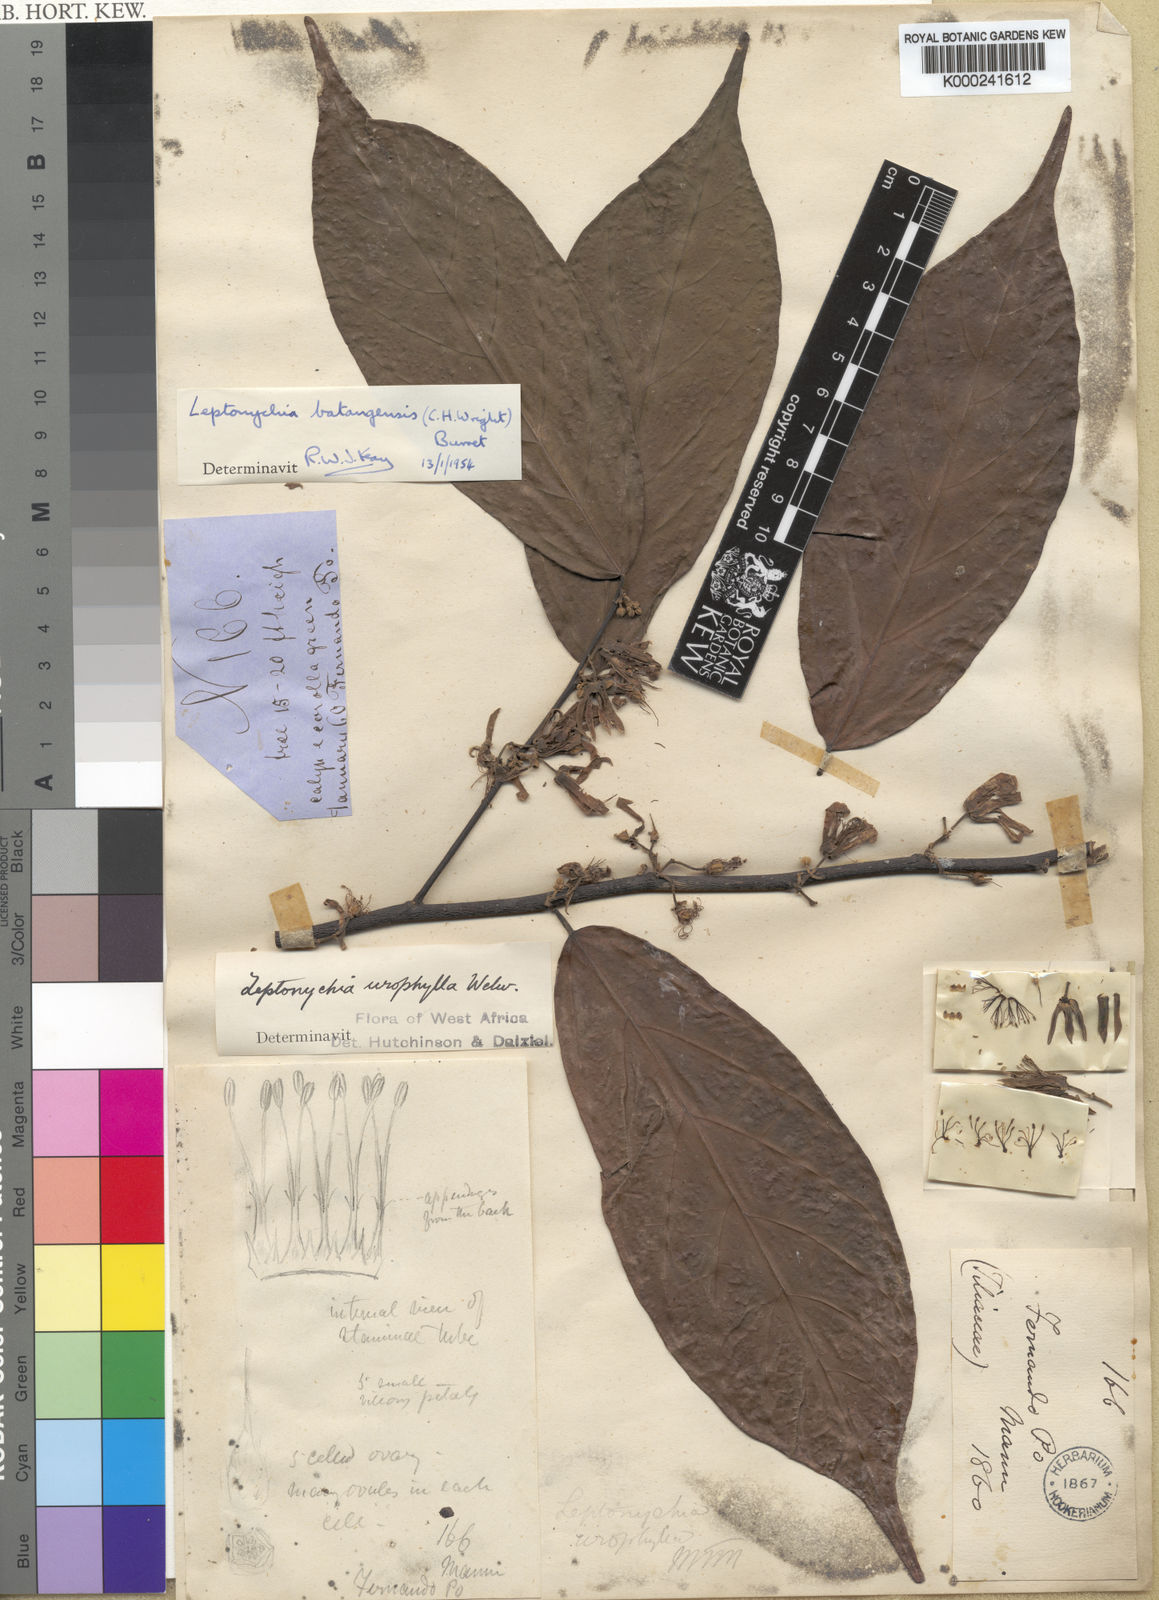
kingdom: Plantae
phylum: Tracheophyta
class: Magnoliopsida
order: Malvales
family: Malvaceae
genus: Leptonychia
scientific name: Leptonychia batangensis
